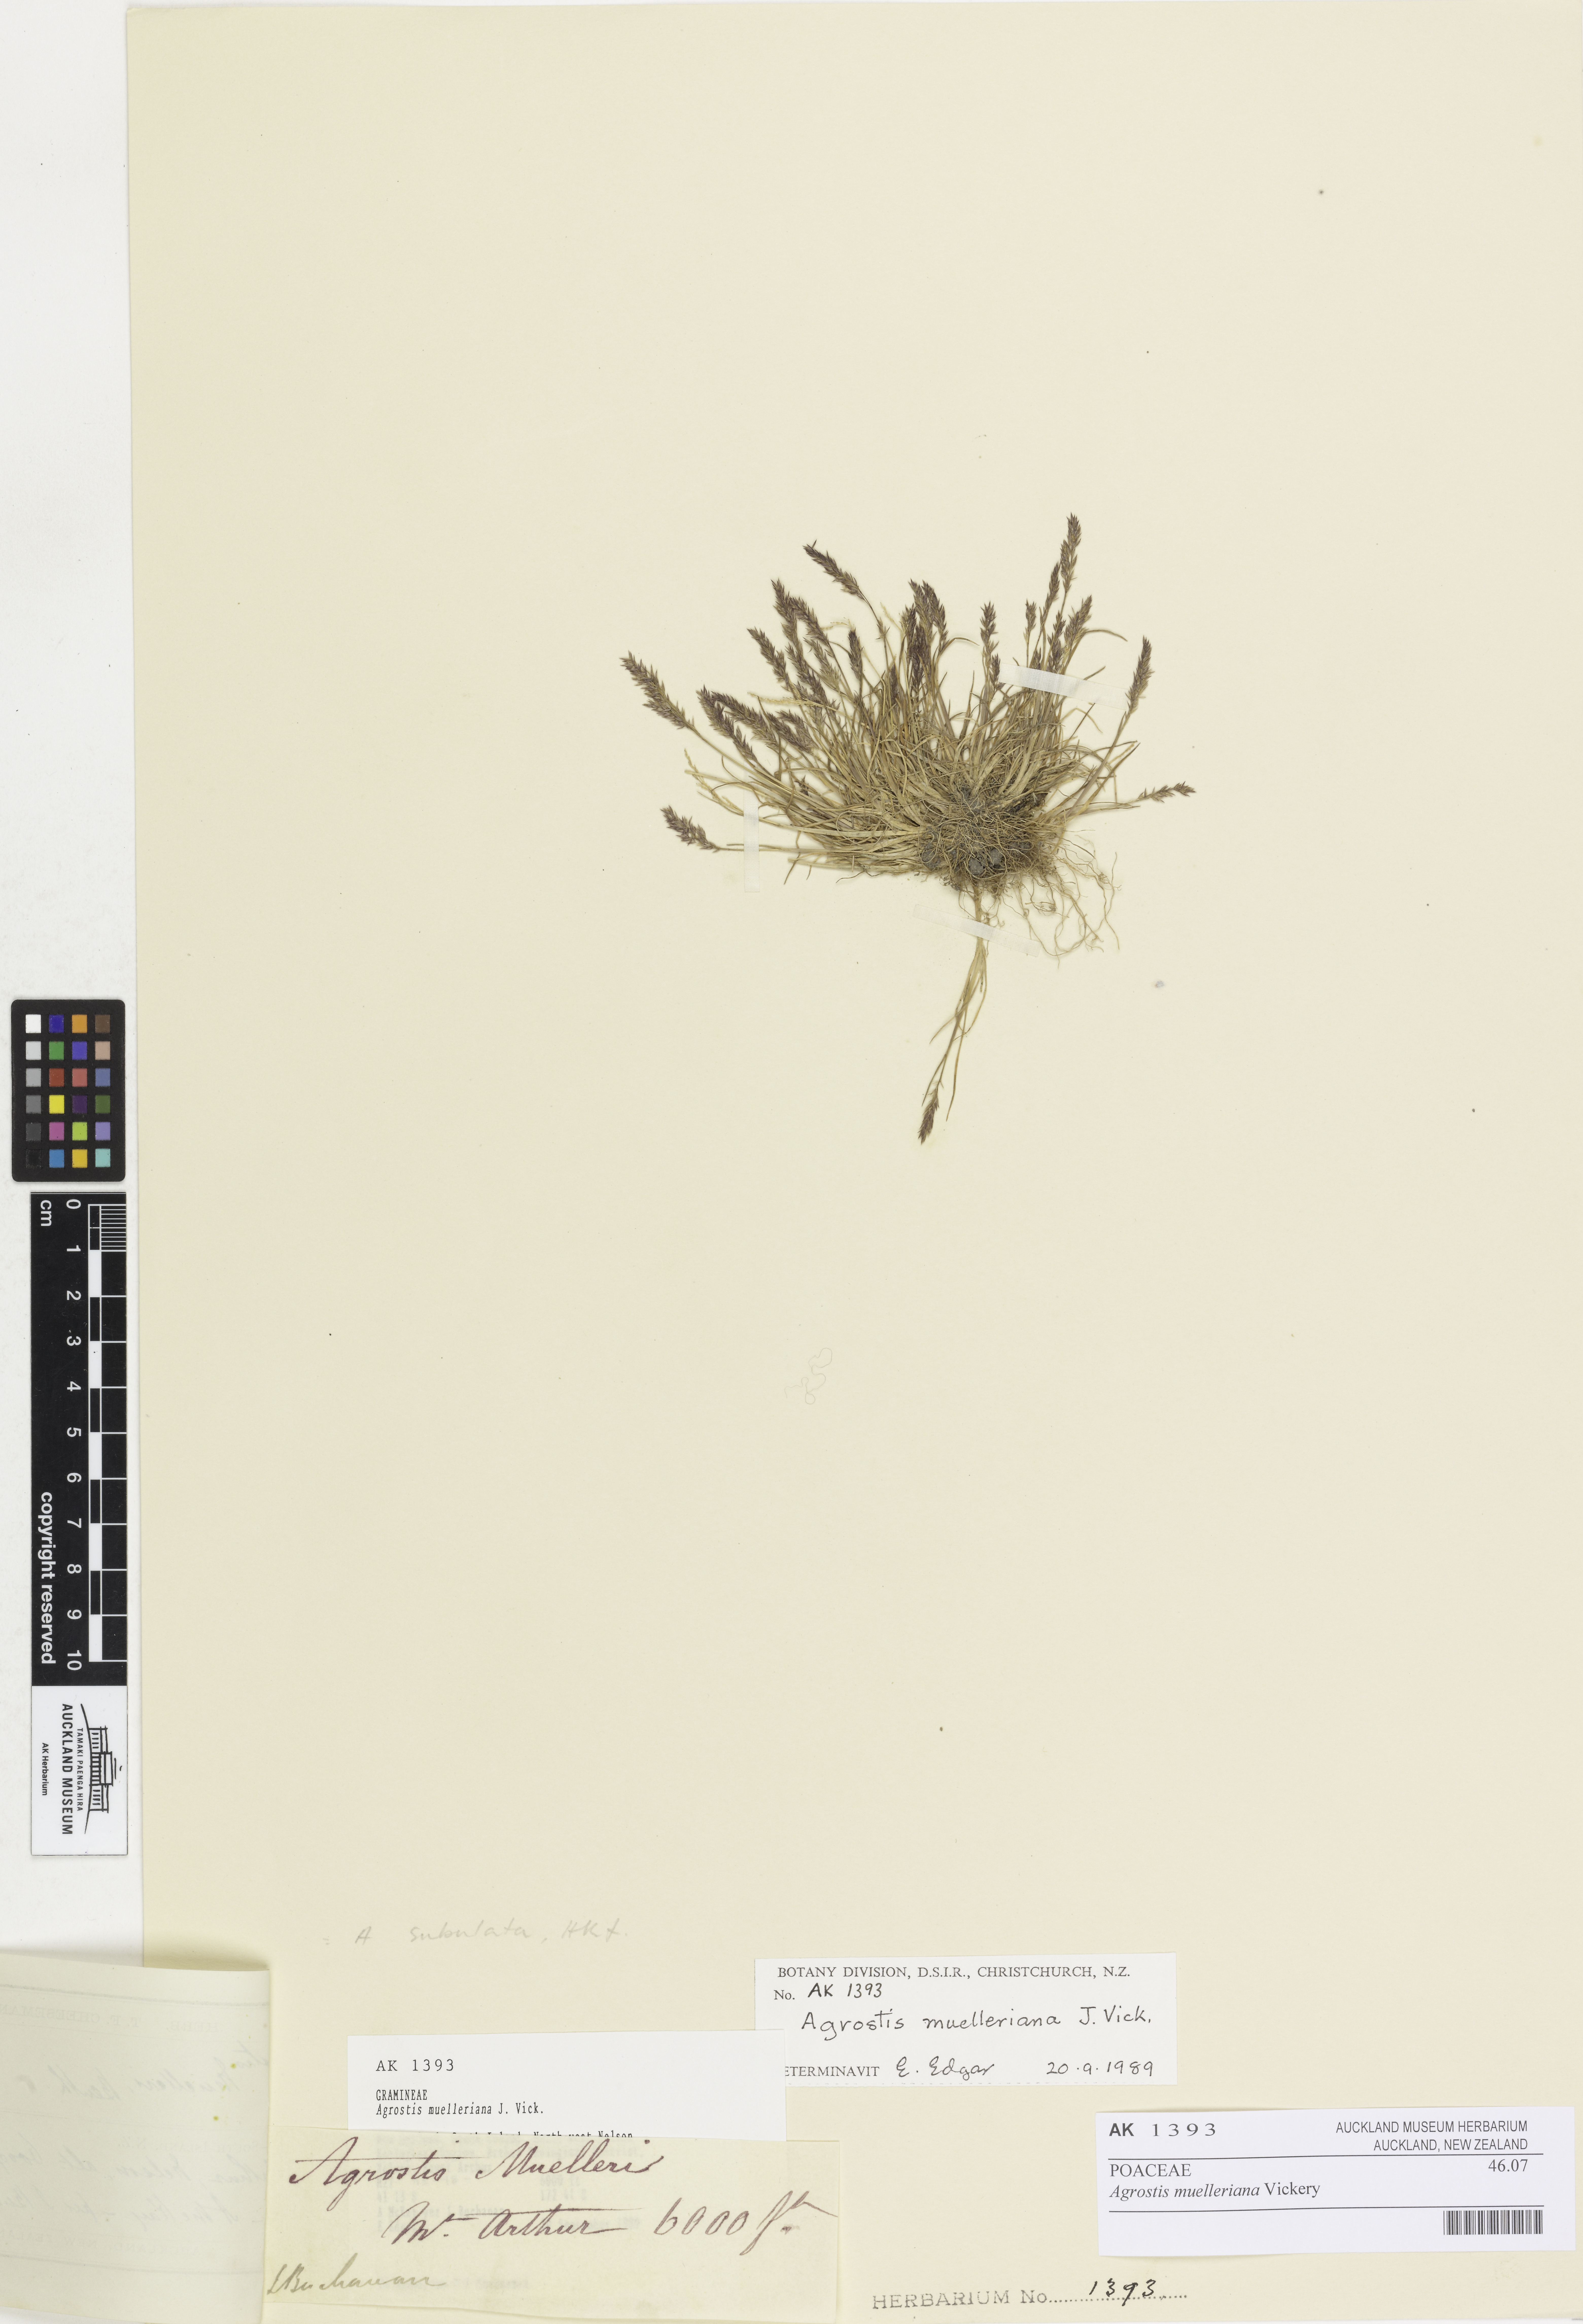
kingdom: Plantae
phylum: Tracheophyta
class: Liliopsida
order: Poales
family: Poaceae
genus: Agrostis
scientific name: Agrostis muelleriana
